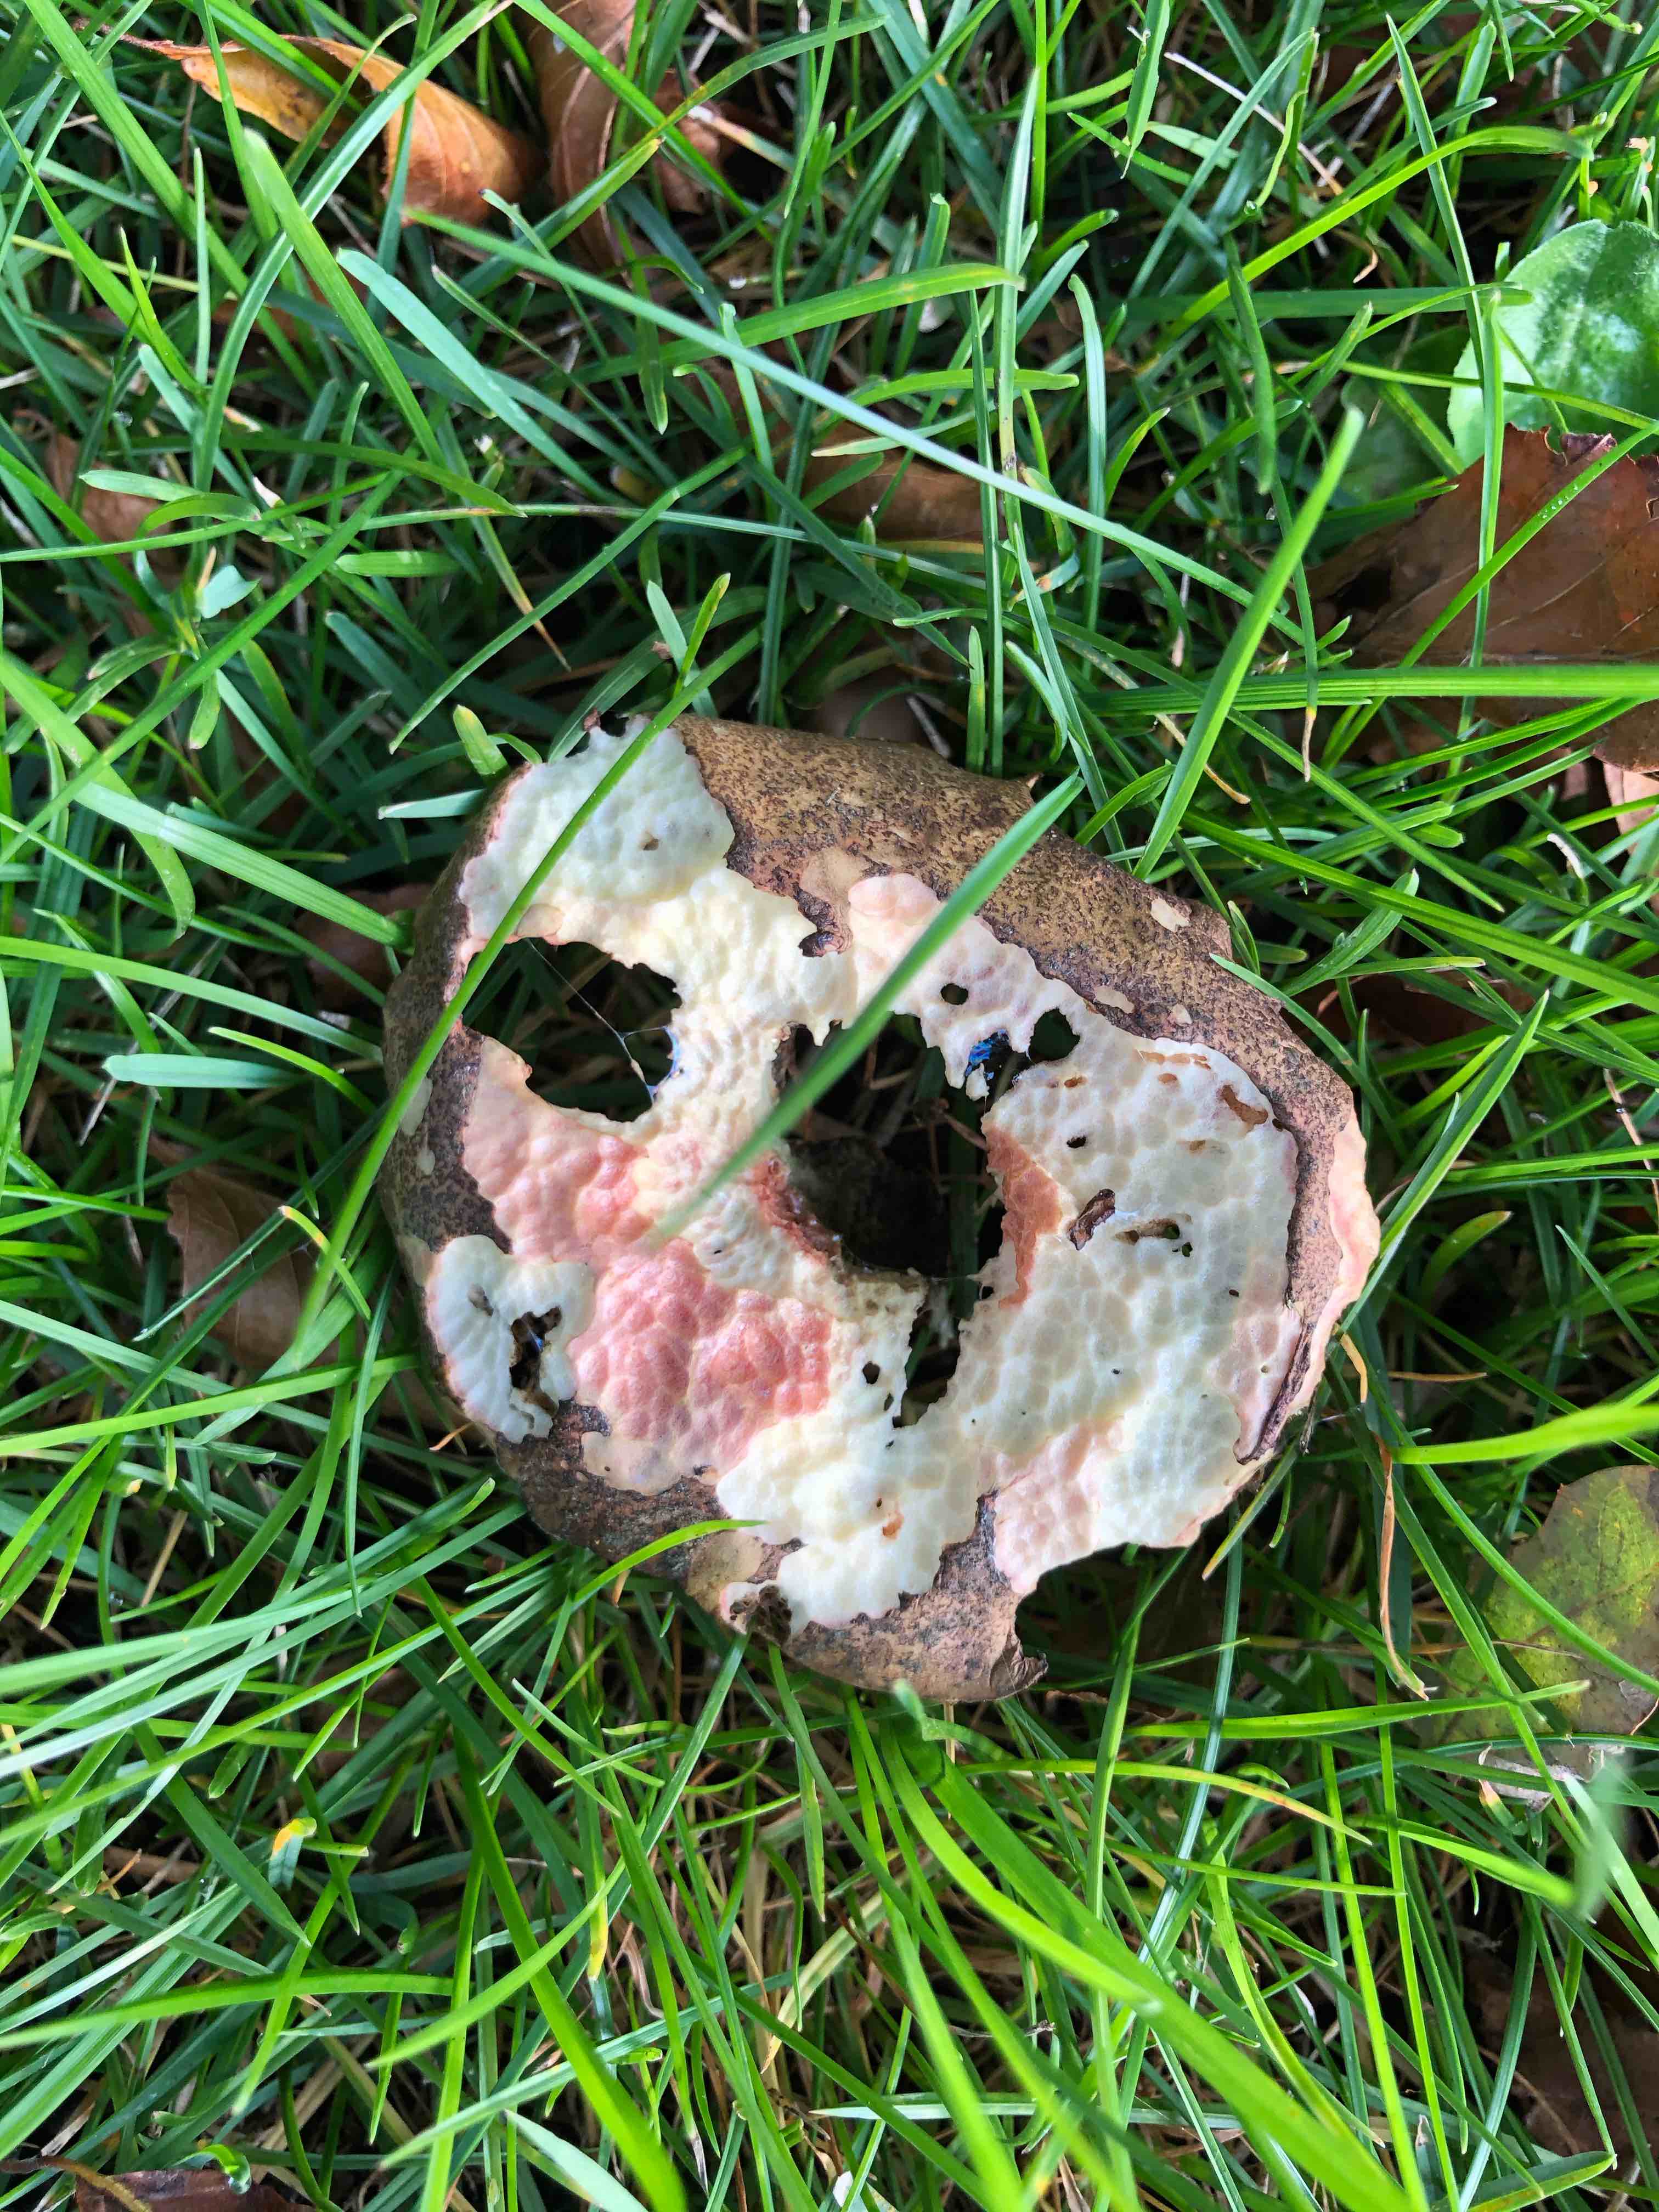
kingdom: Fungi
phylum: Basidiomycota
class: Agaricomycetes
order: Boletales
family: Boletaceae
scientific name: Boletaceae
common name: rørhatfamilien
